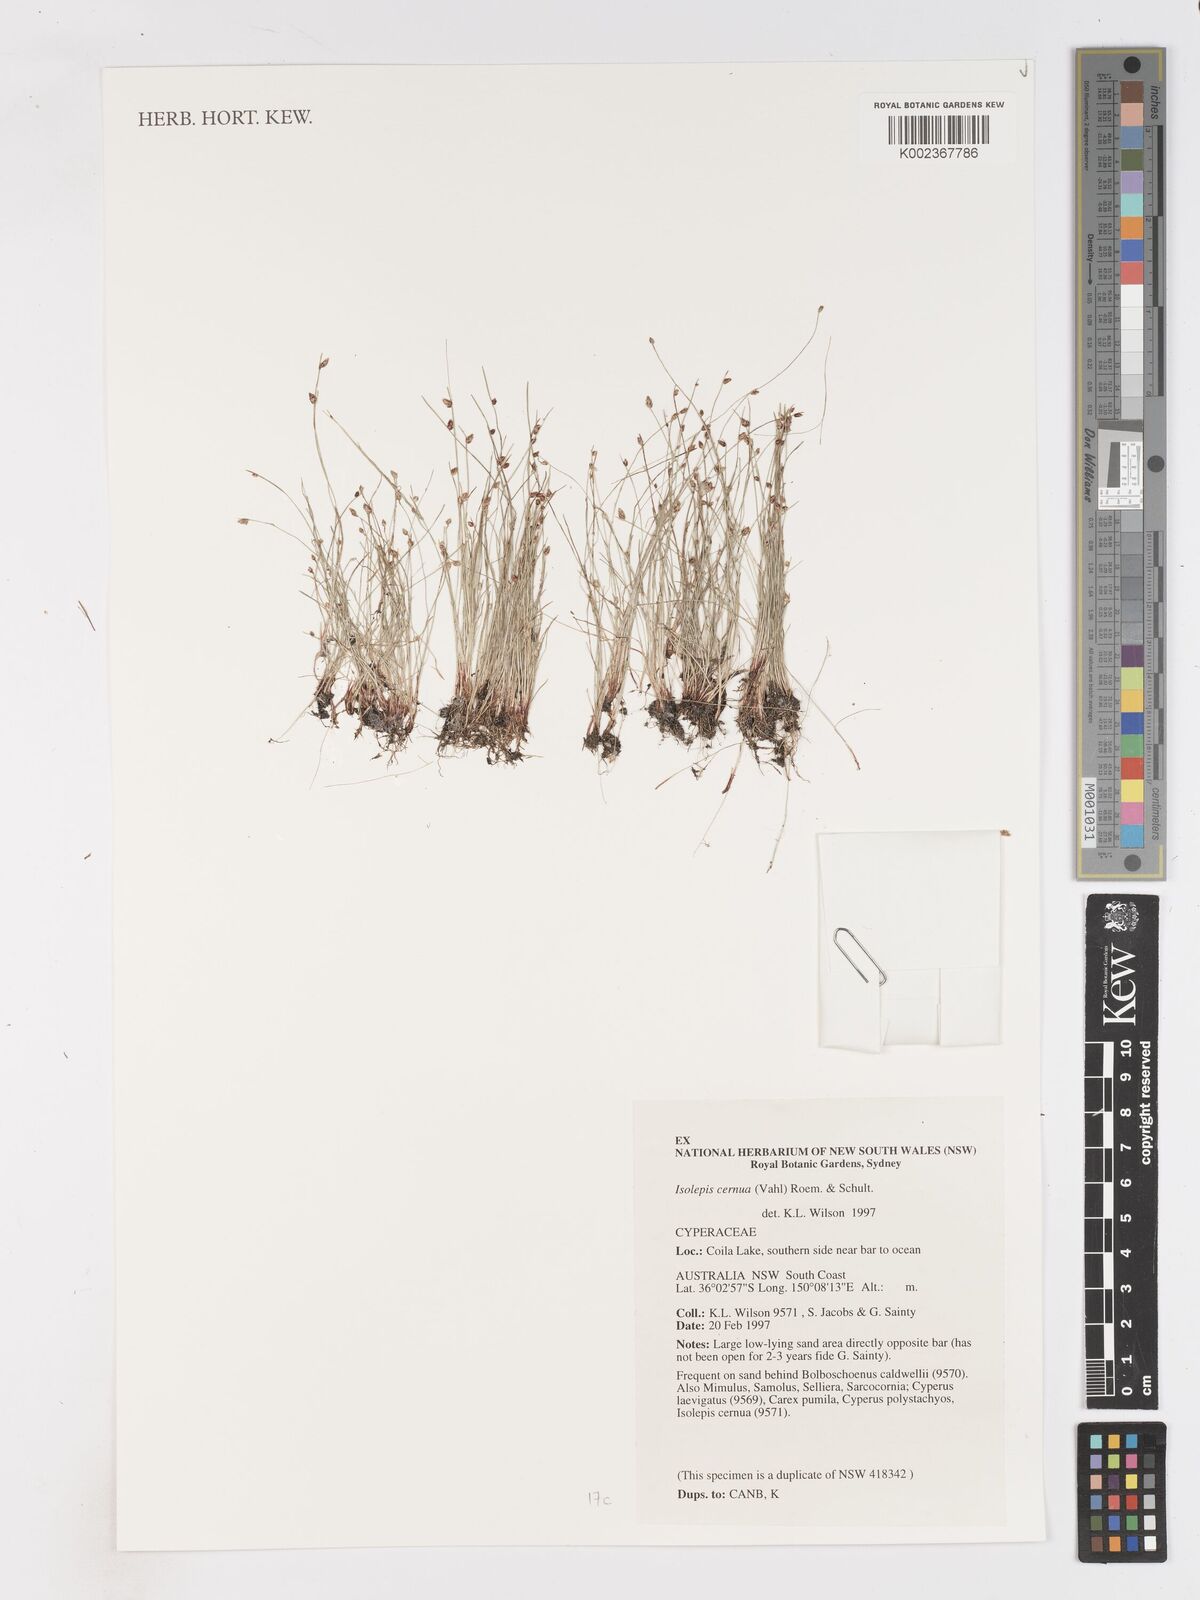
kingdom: Plantae
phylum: Tracheophyta
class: Liliopsida
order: Poales
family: Cyperaceae
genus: Isolepis
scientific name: Isolepis cernua
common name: Slender club-rush
